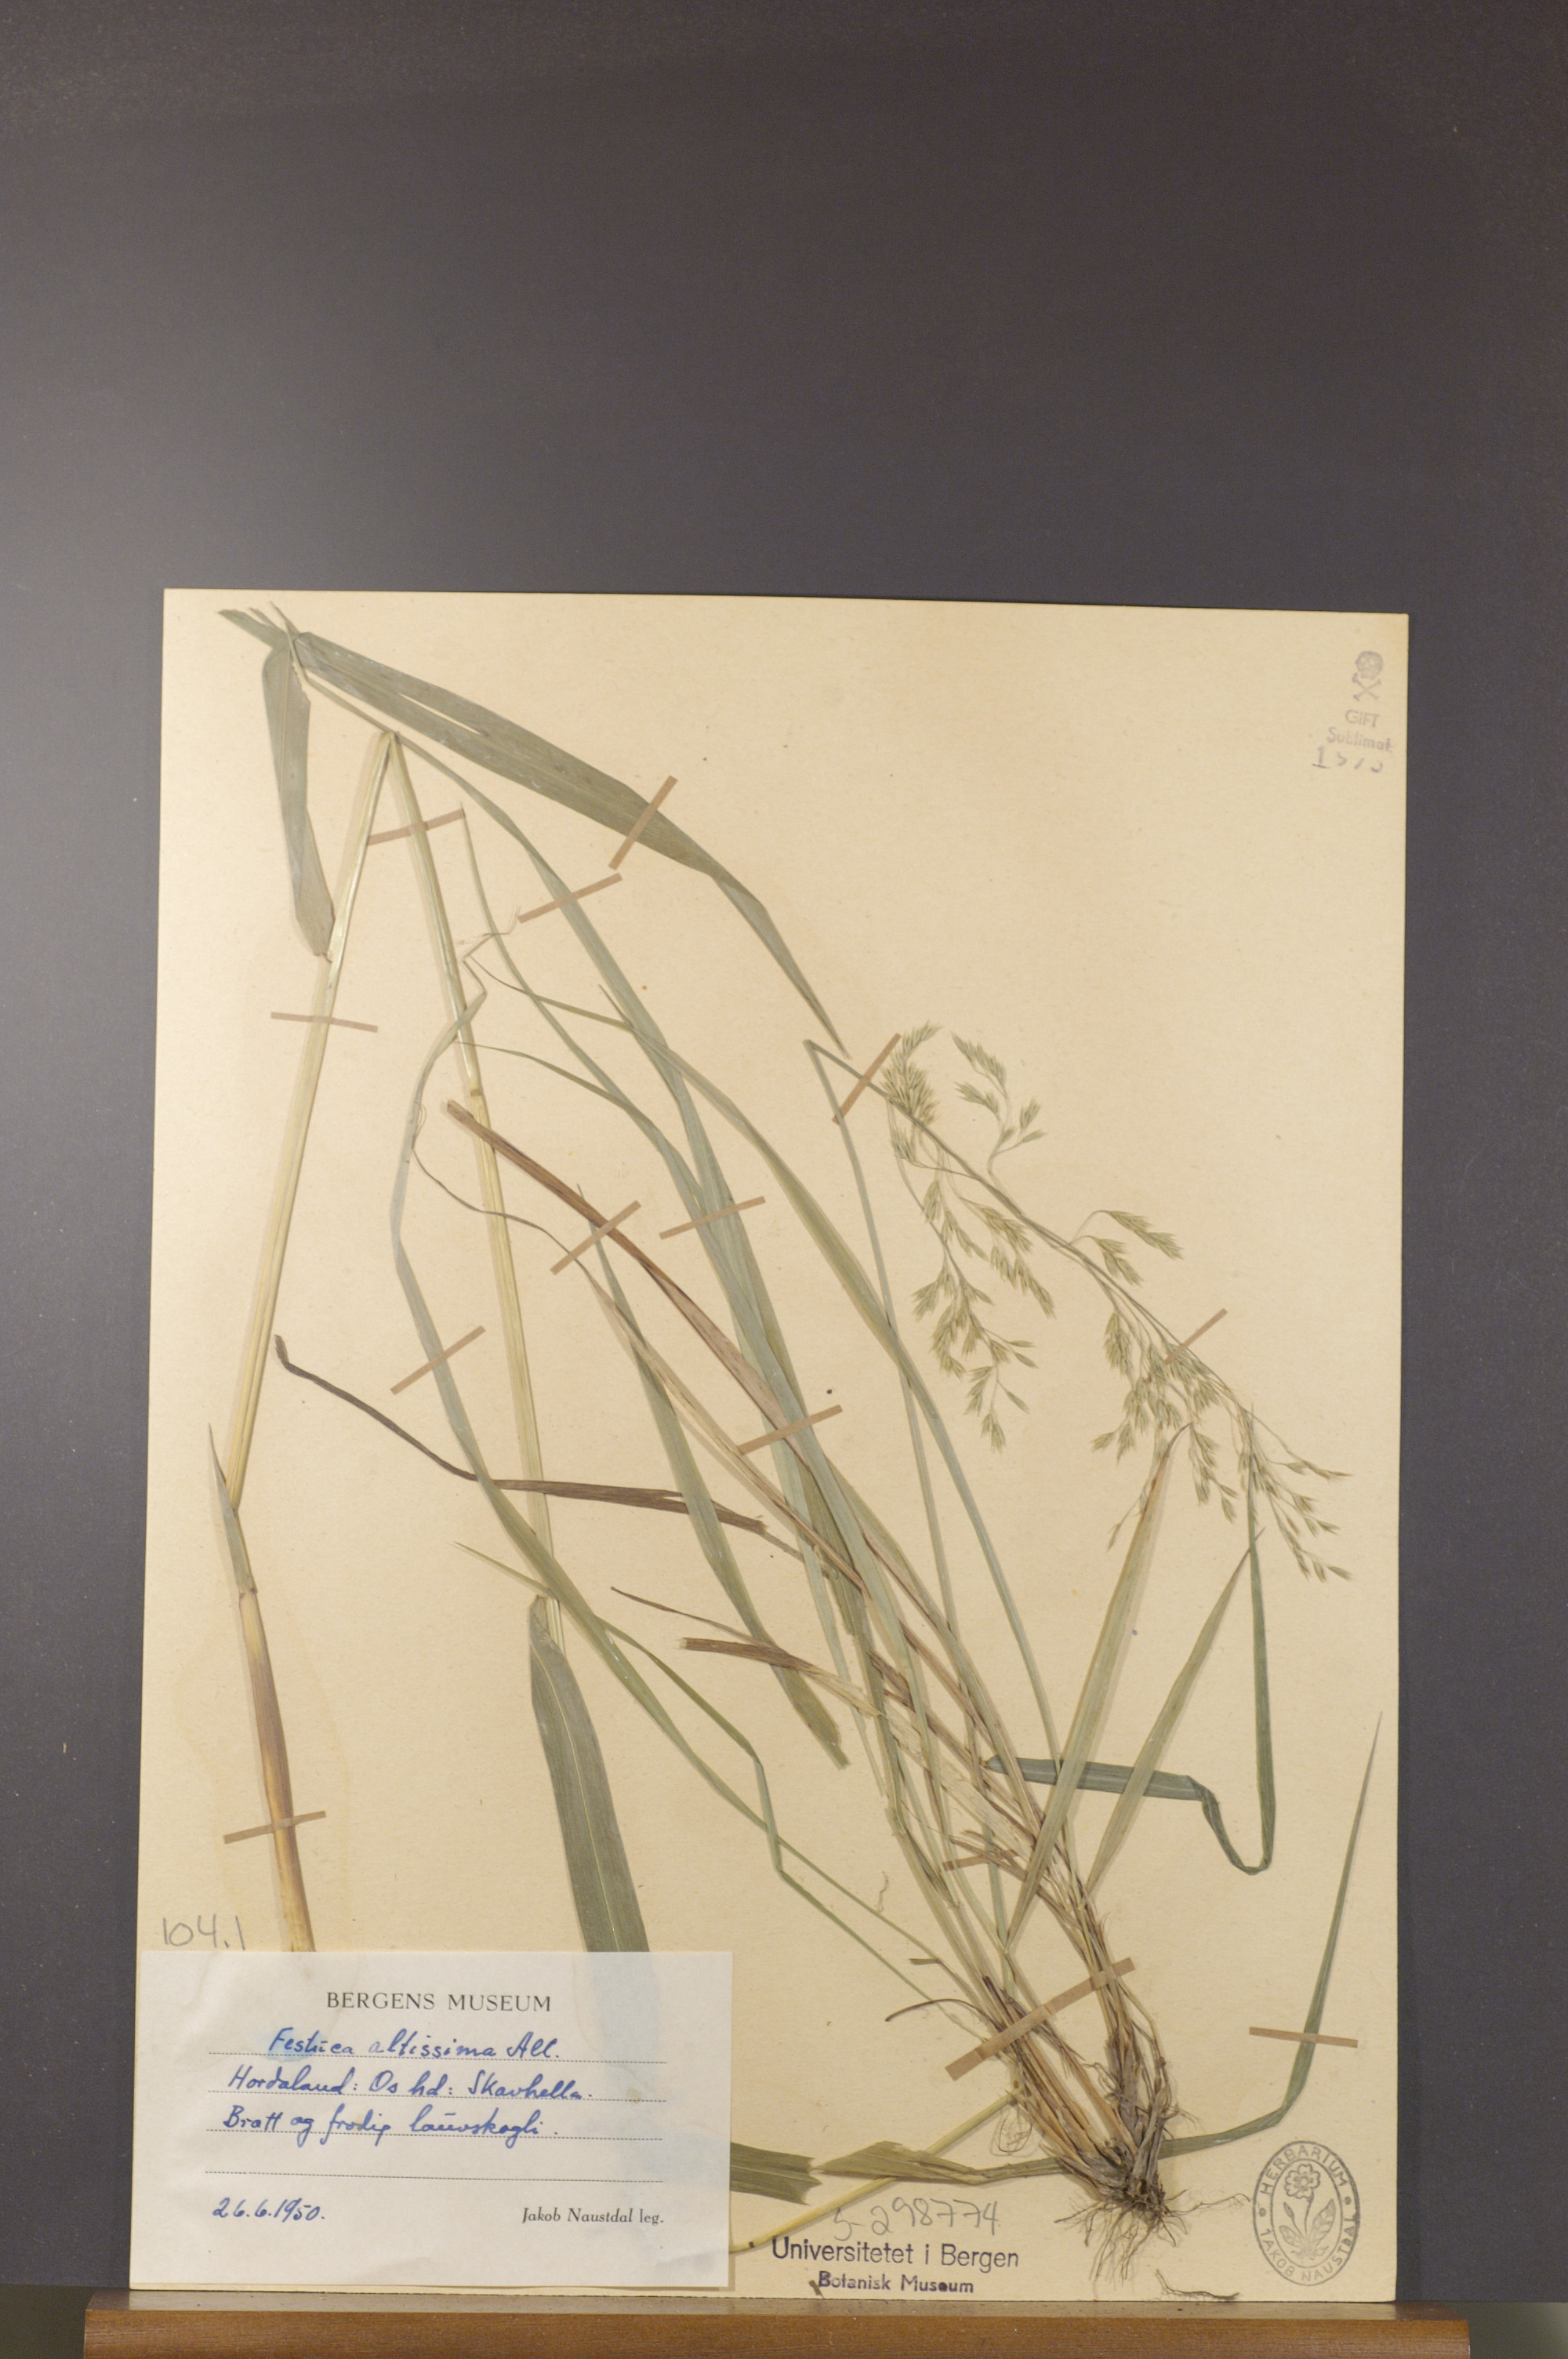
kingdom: Plantae
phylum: Tracheophyta
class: Liliopsida
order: Poales
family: Poaceae
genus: Festuca
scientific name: Festuca altissima
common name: Wood fescue
